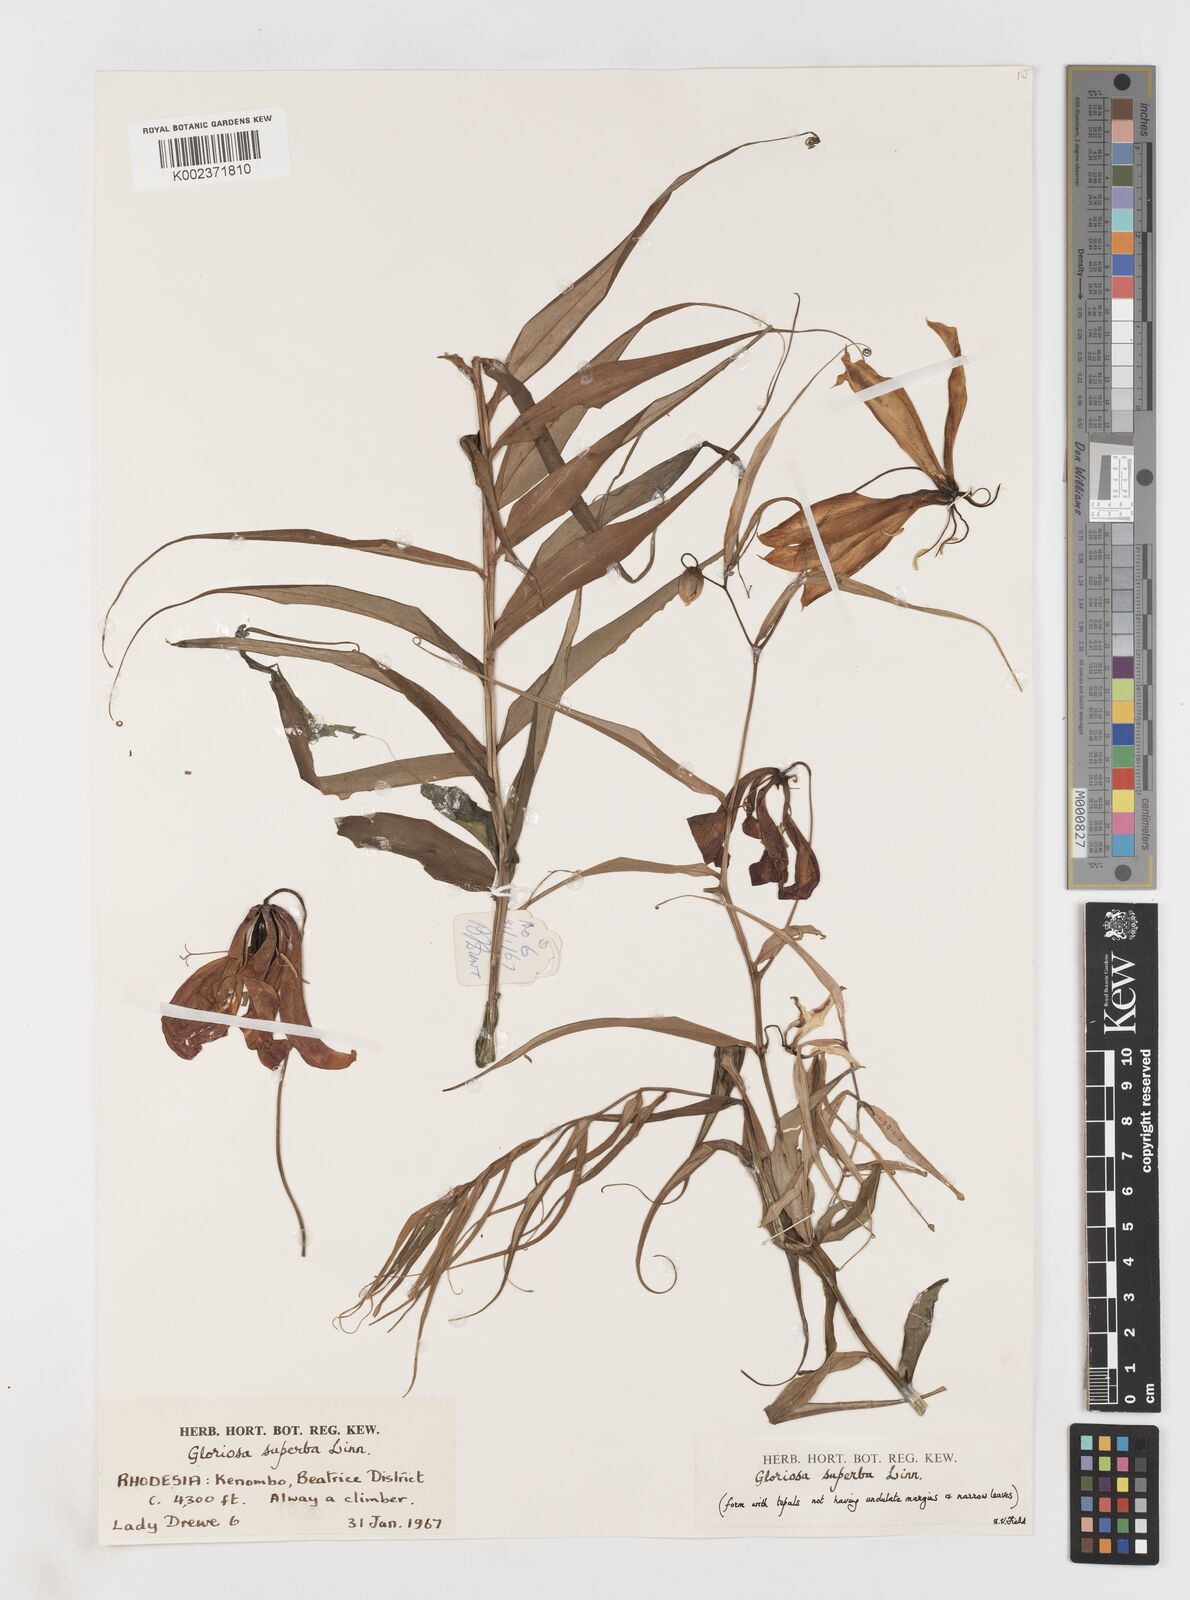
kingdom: Plantae
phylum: Tracheophyta
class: Liliopsida
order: Liliales
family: Colchicaceae
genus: Gloriosa
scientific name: Gloriosa simplex
